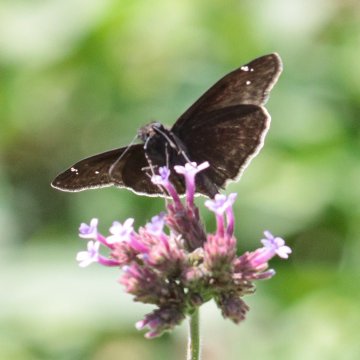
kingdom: Animalia
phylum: Arthropoda
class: Insecta
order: Lepidoptera
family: Hesperiidae
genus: Erynnis
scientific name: Erynnis zarucco
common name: Zarucco Duskywing
